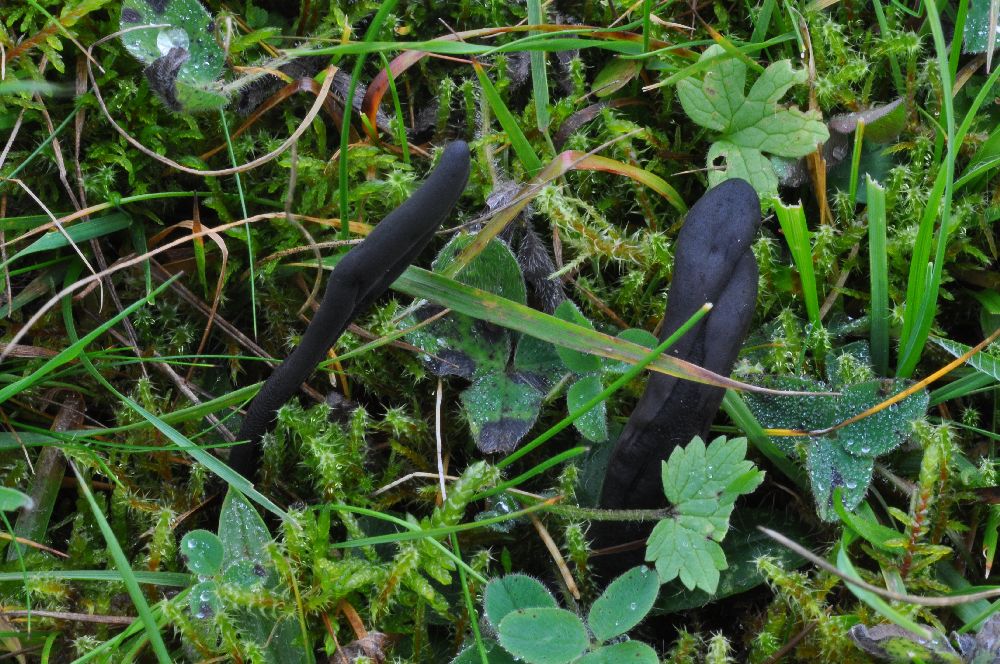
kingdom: Fungi
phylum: Ascomycota
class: Geoglossomycetes
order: Geoglossales
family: Geoglossaceae
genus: Geoglossum
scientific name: Geoglossum fallax
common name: småskællet jordtunge
